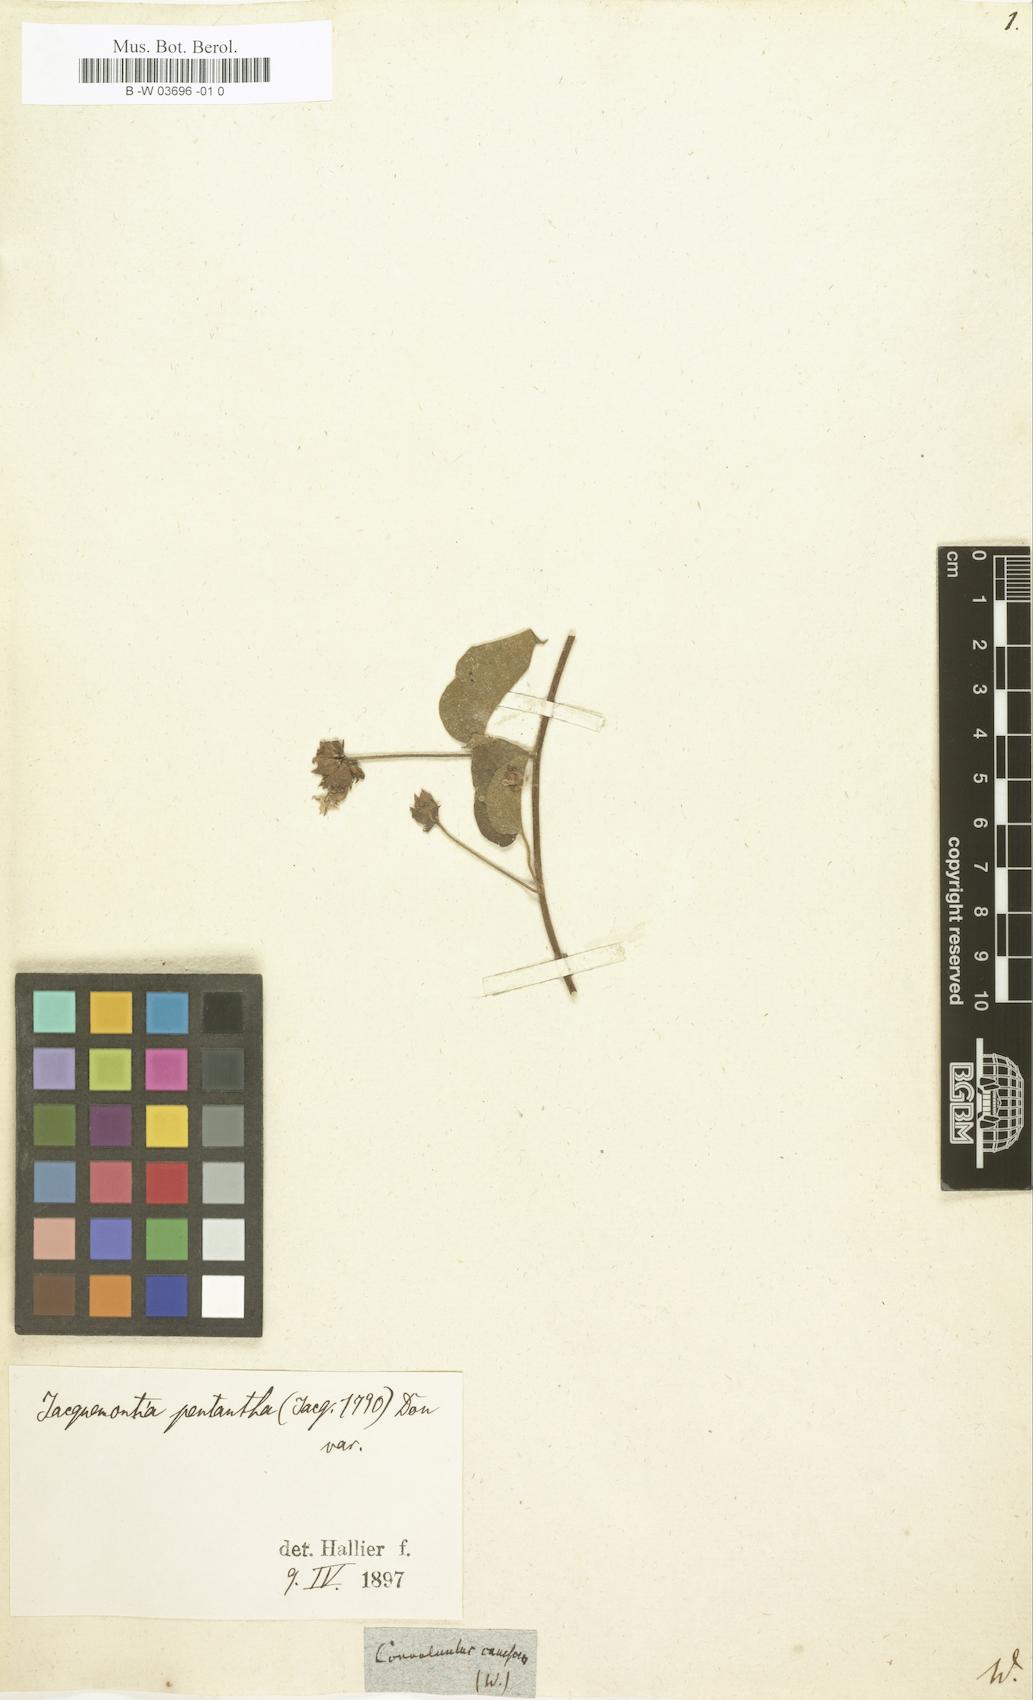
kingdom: Plantae
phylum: Tracheophyta
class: Magnoliopsida
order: Solanales
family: Convolvulaceae
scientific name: Convolvulaceae
